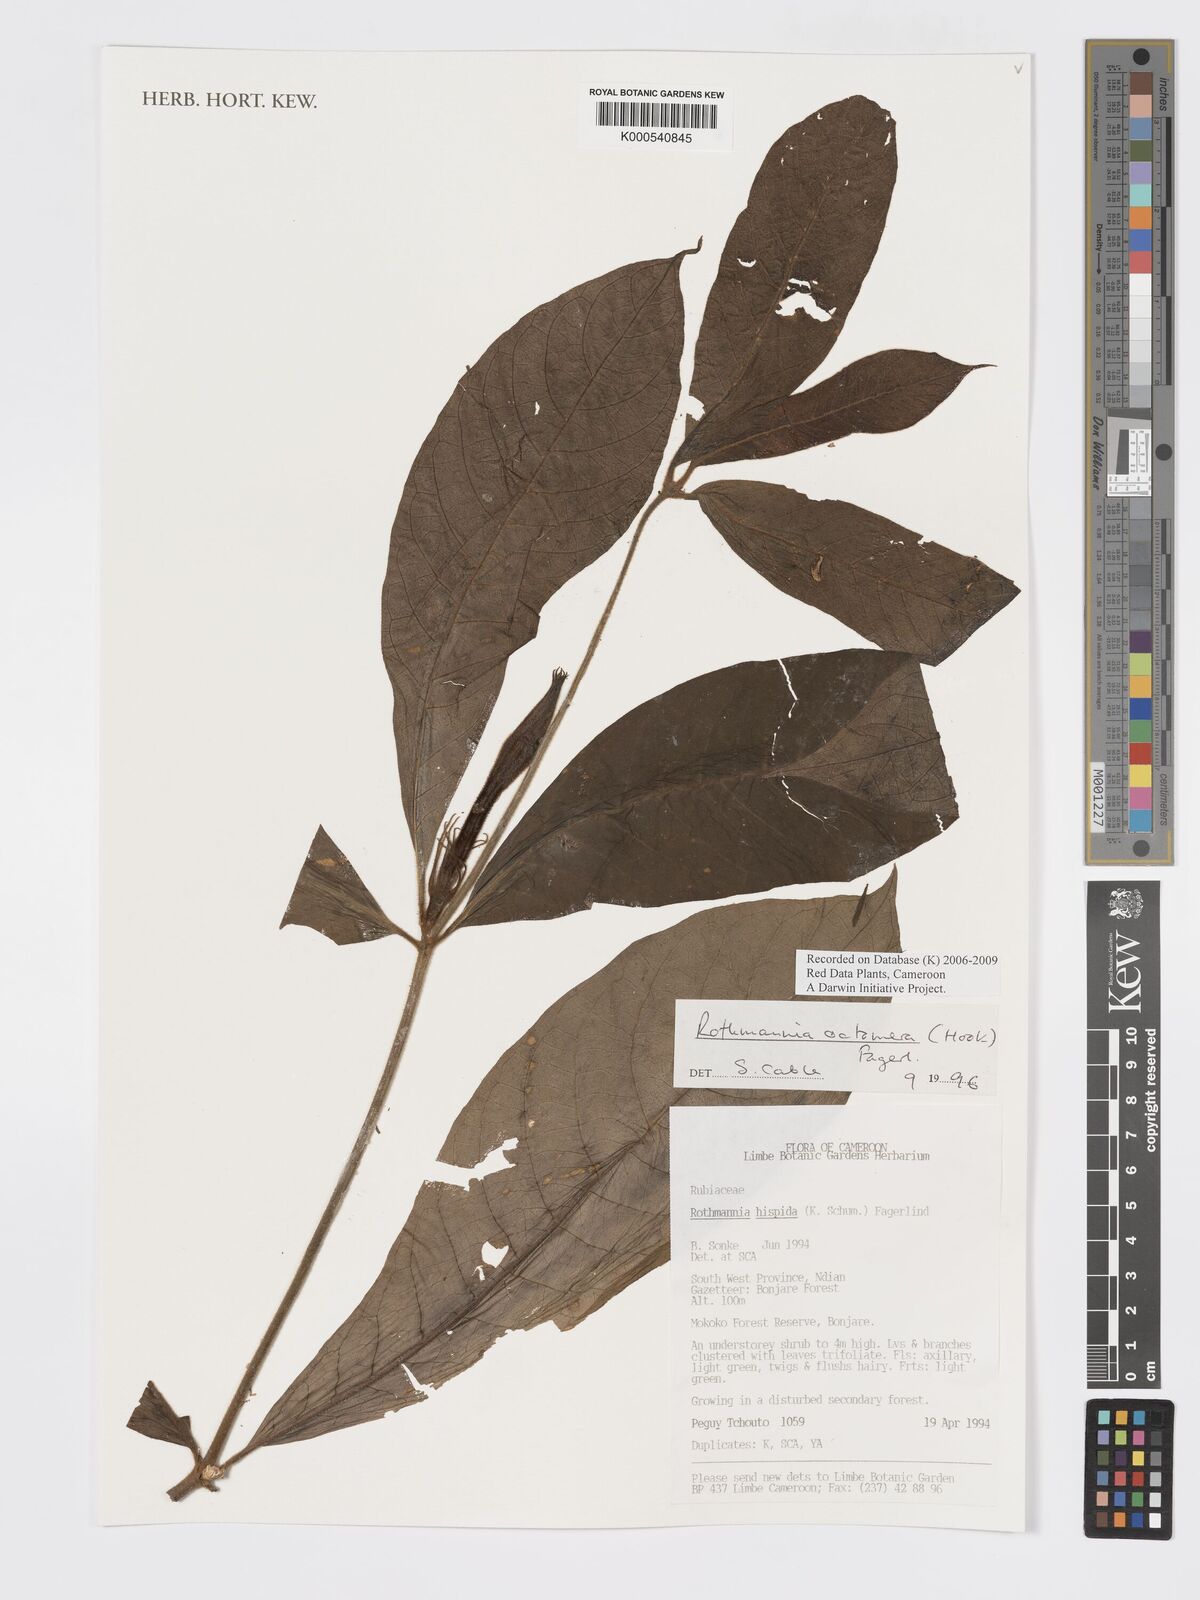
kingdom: Plantae
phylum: Tracheophyta
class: Magnoliopsida
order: Gentianales
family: Rubiaceae
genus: Rothmannia
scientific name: Rothmannia octomera
